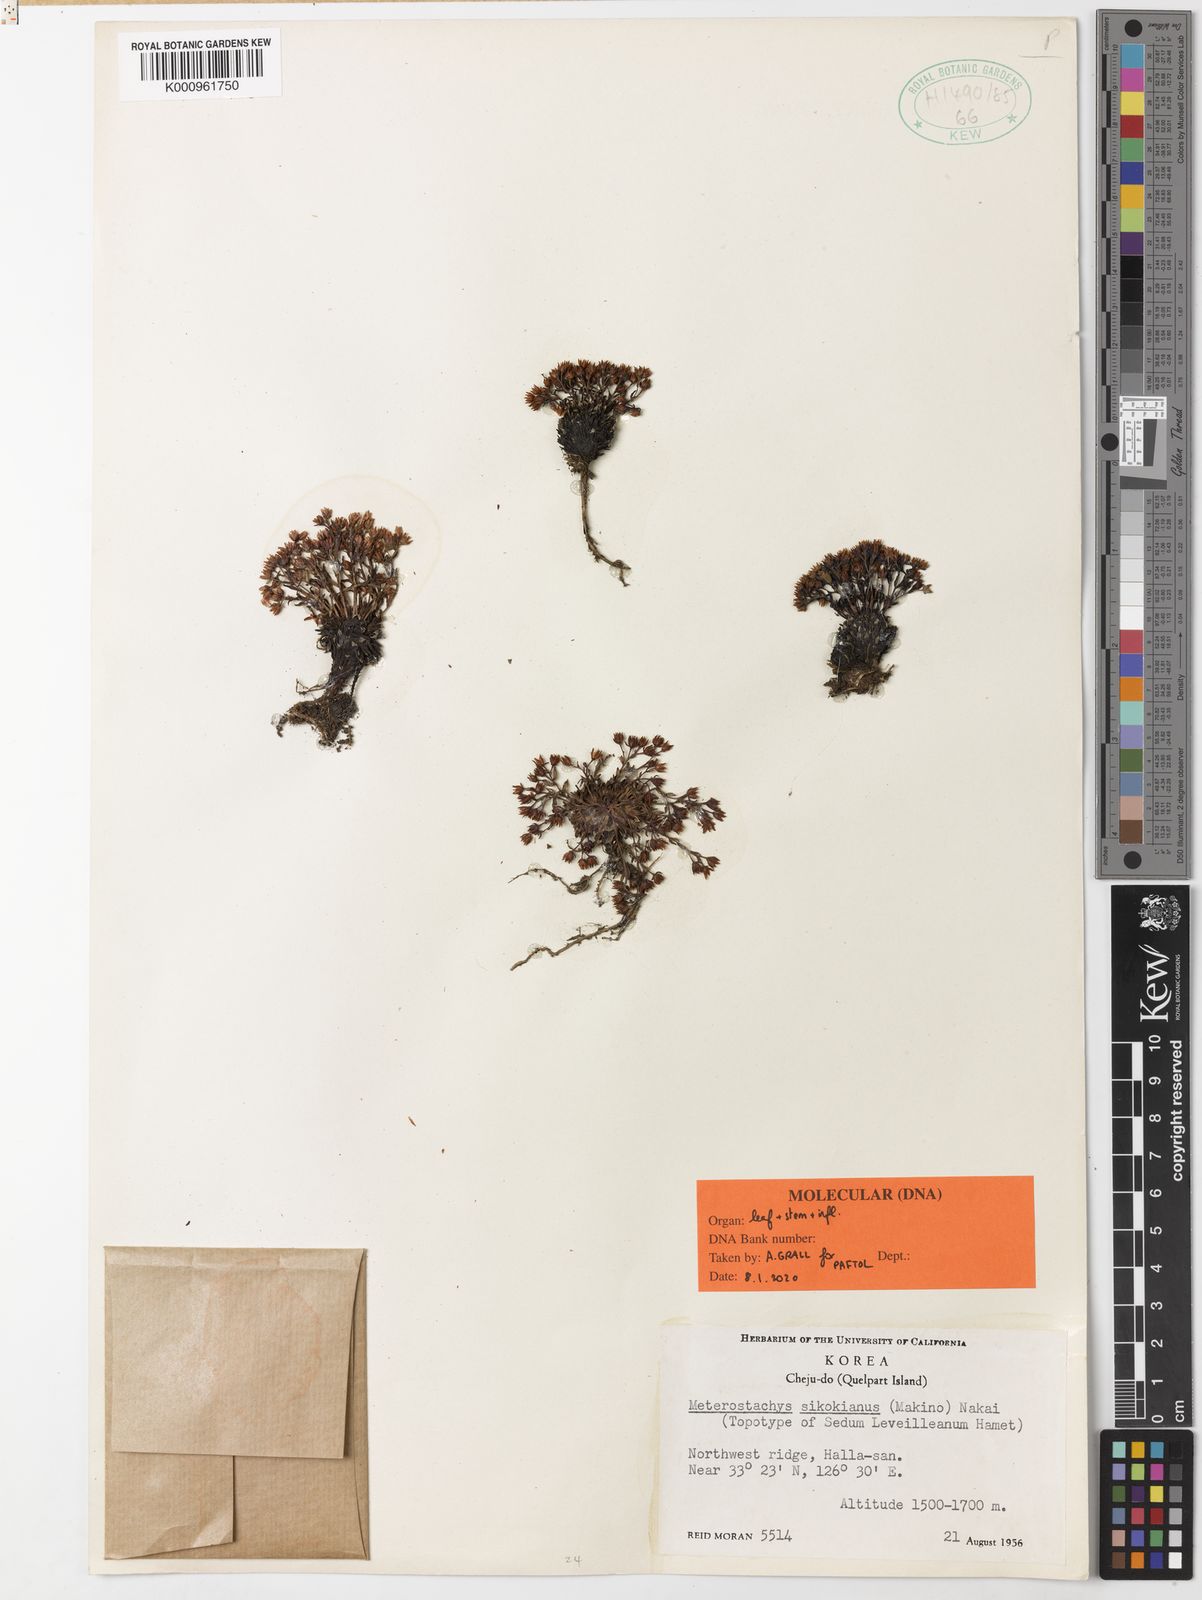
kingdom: Plantae
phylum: Tracheophyta
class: Magnoliopsida
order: Saxifragales
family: Crassulaceae
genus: Meterostachys
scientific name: Meterostachys sikokianus
